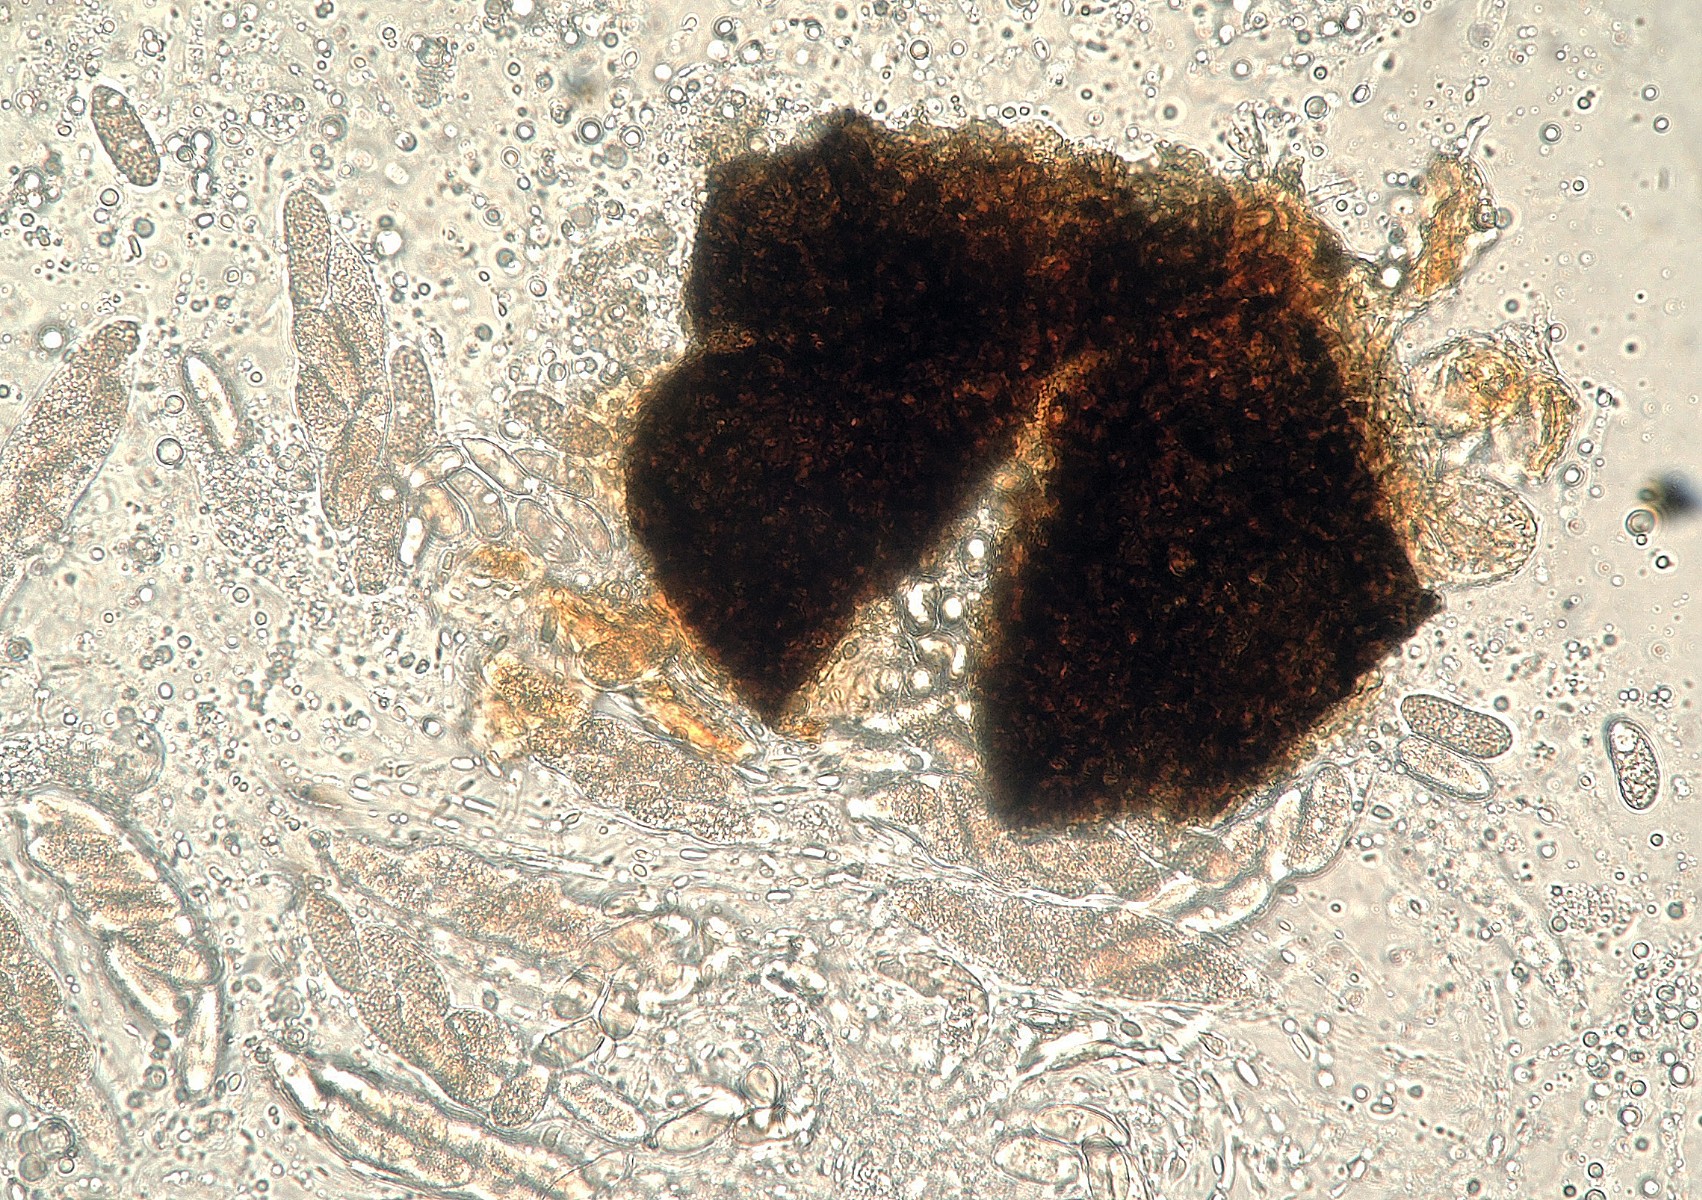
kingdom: Fungi
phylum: Ascomycota
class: Dothideomycetes
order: Botryosphaeriales
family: Botryosphaeriaceae
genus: Botryosphaeria
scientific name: Botryosphaeria hyperborea
